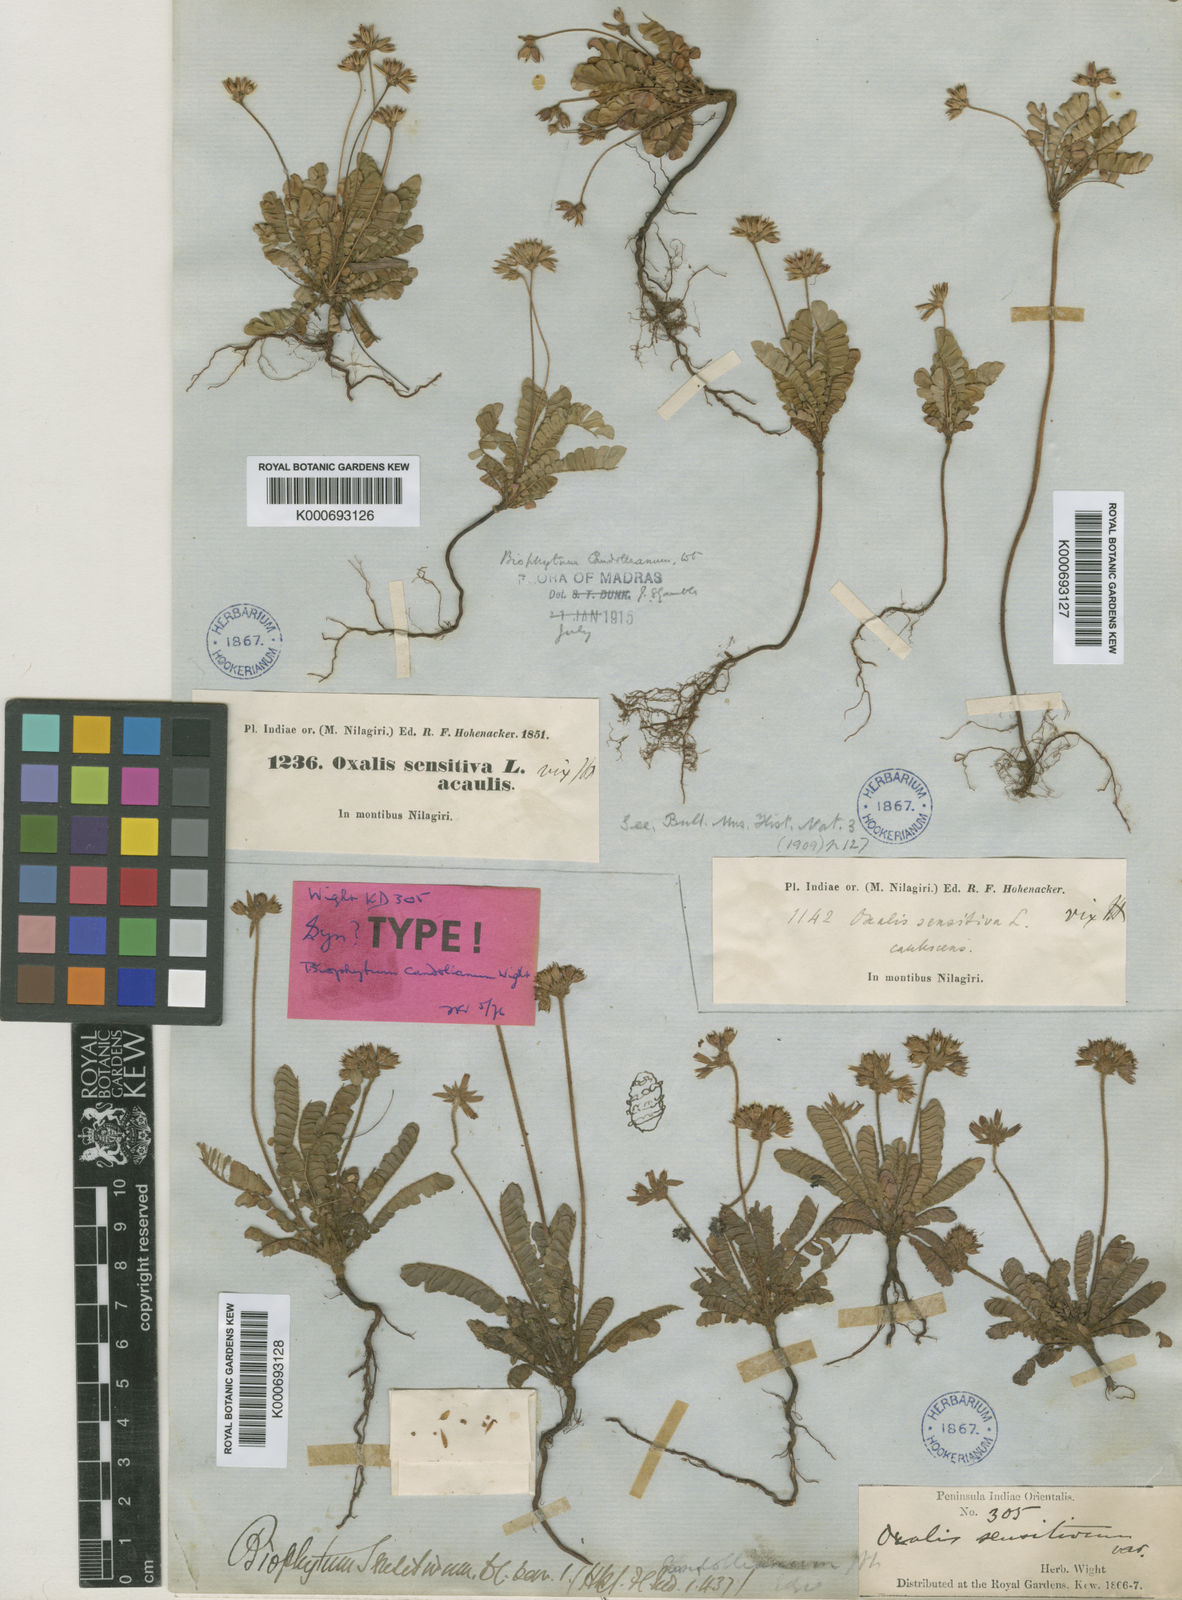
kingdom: Plantae
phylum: Tracheophyta
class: Magnoliopsida
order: Oxalidales
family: Oxalidaceae
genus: Biophytum
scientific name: Biophytum sensitivum
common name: Lifeplant
